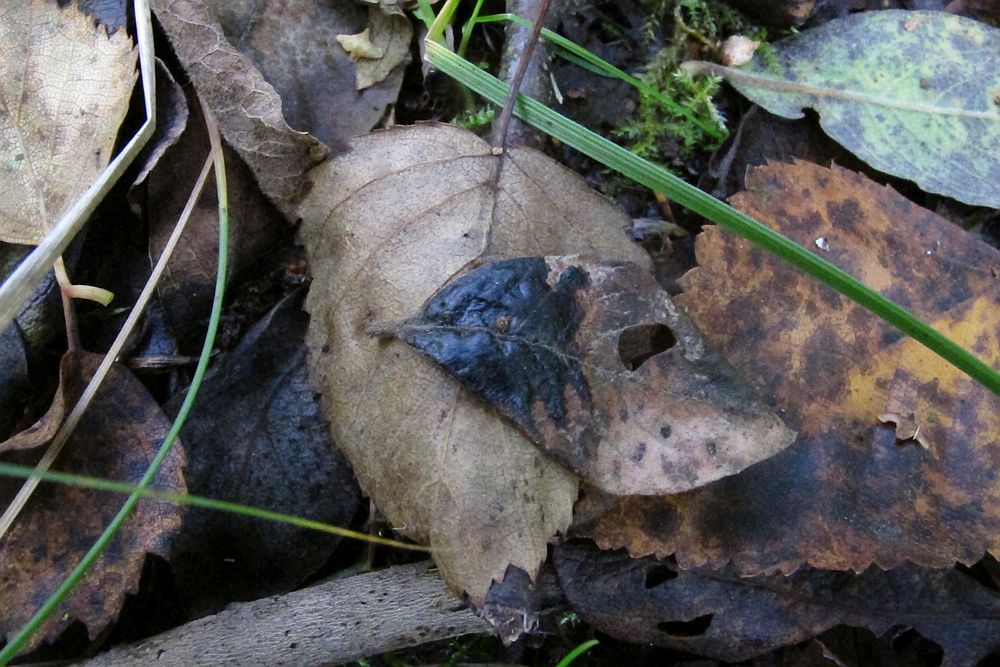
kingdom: Fungi
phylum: Ascomycota
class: Leotiomycetes
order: Rhytismatales
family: Rhytismataceae
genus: Rhytisma
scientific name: Rhytisma salicinum
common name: pile-rynkeplet
